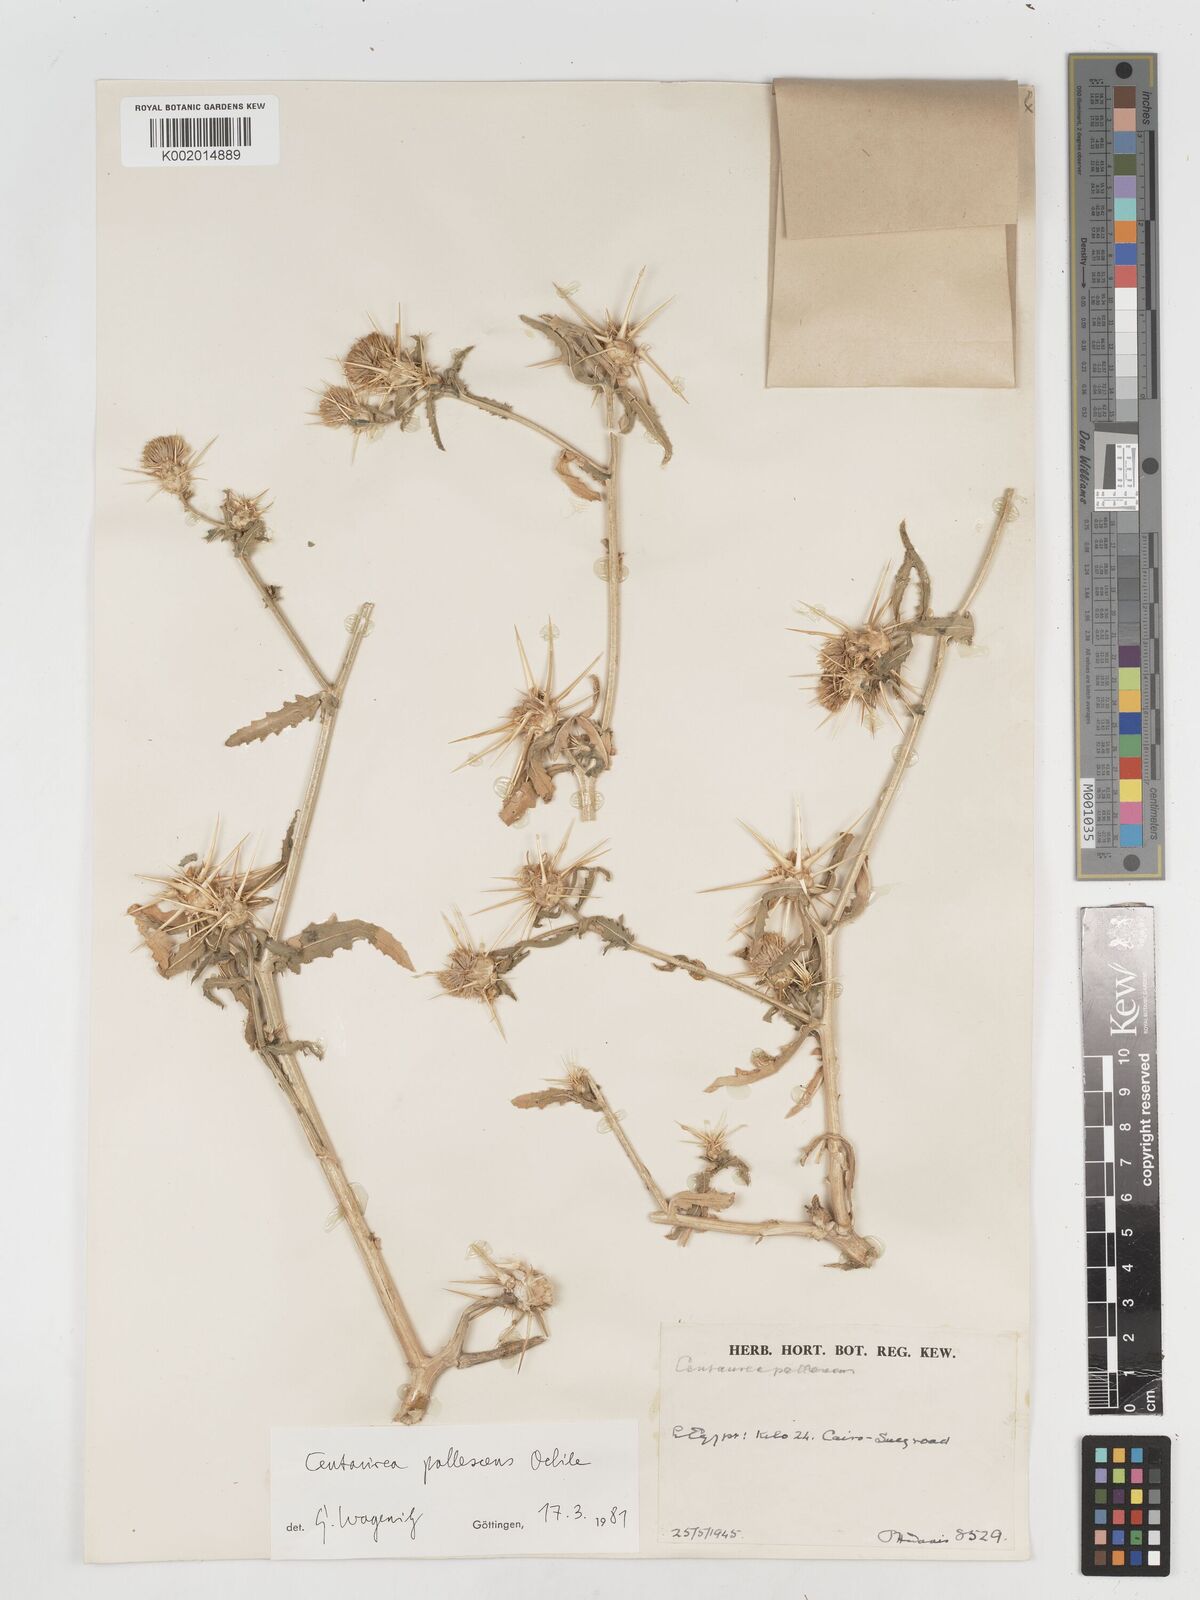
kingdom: Plantae
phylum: Tracheophyta
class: Magnoliopsida
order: Asterales
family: Asteraceae
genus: Centaurea
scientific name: Centaurea pallescens
